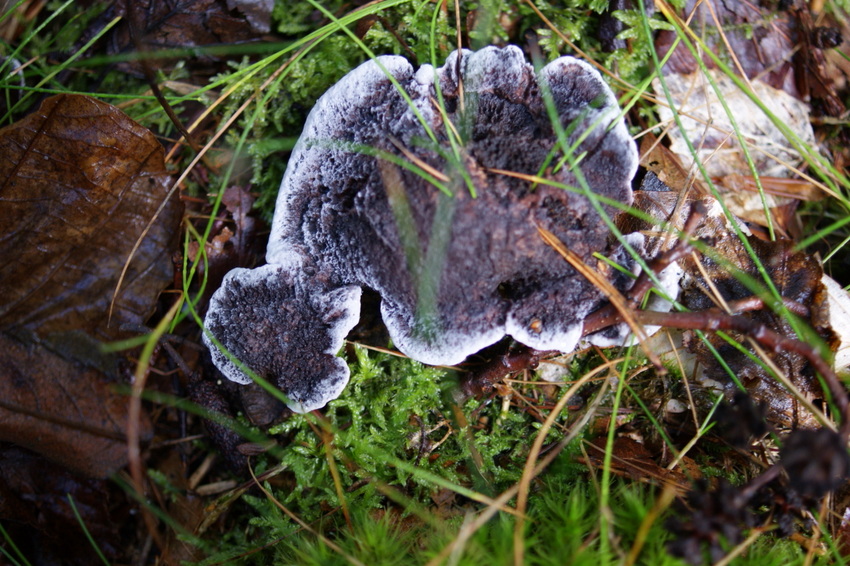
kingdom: Fungi
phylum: Basidiomycota
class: Agaricomycetes
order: Thelephorales
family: Thelephoraceae
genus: Phellodon
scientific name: Phellodon
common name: mørk duftpigsvamp
